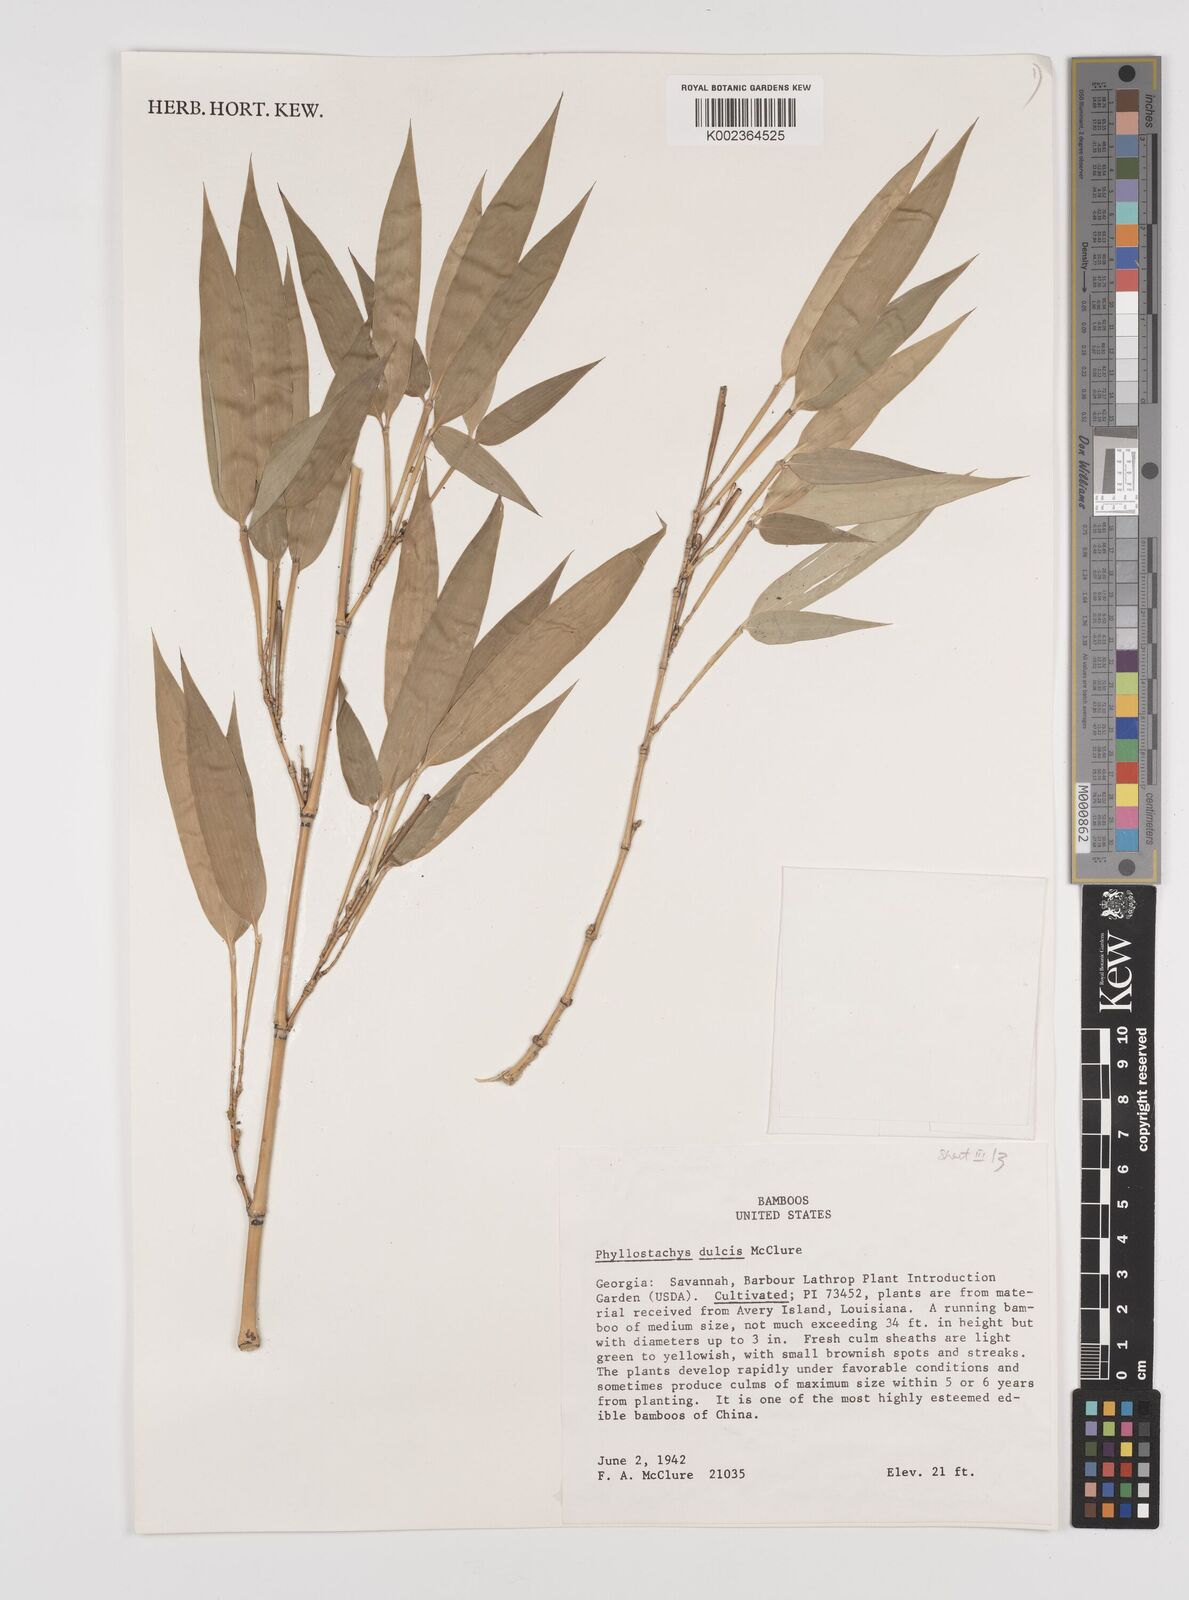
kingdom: Plantae
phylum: Tracheophyta
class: Liliopsida
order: Poales
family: Poaceae
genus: Phyllostachys
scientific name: Phyllostachys dulcis
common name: Sweetshoot bamboo
